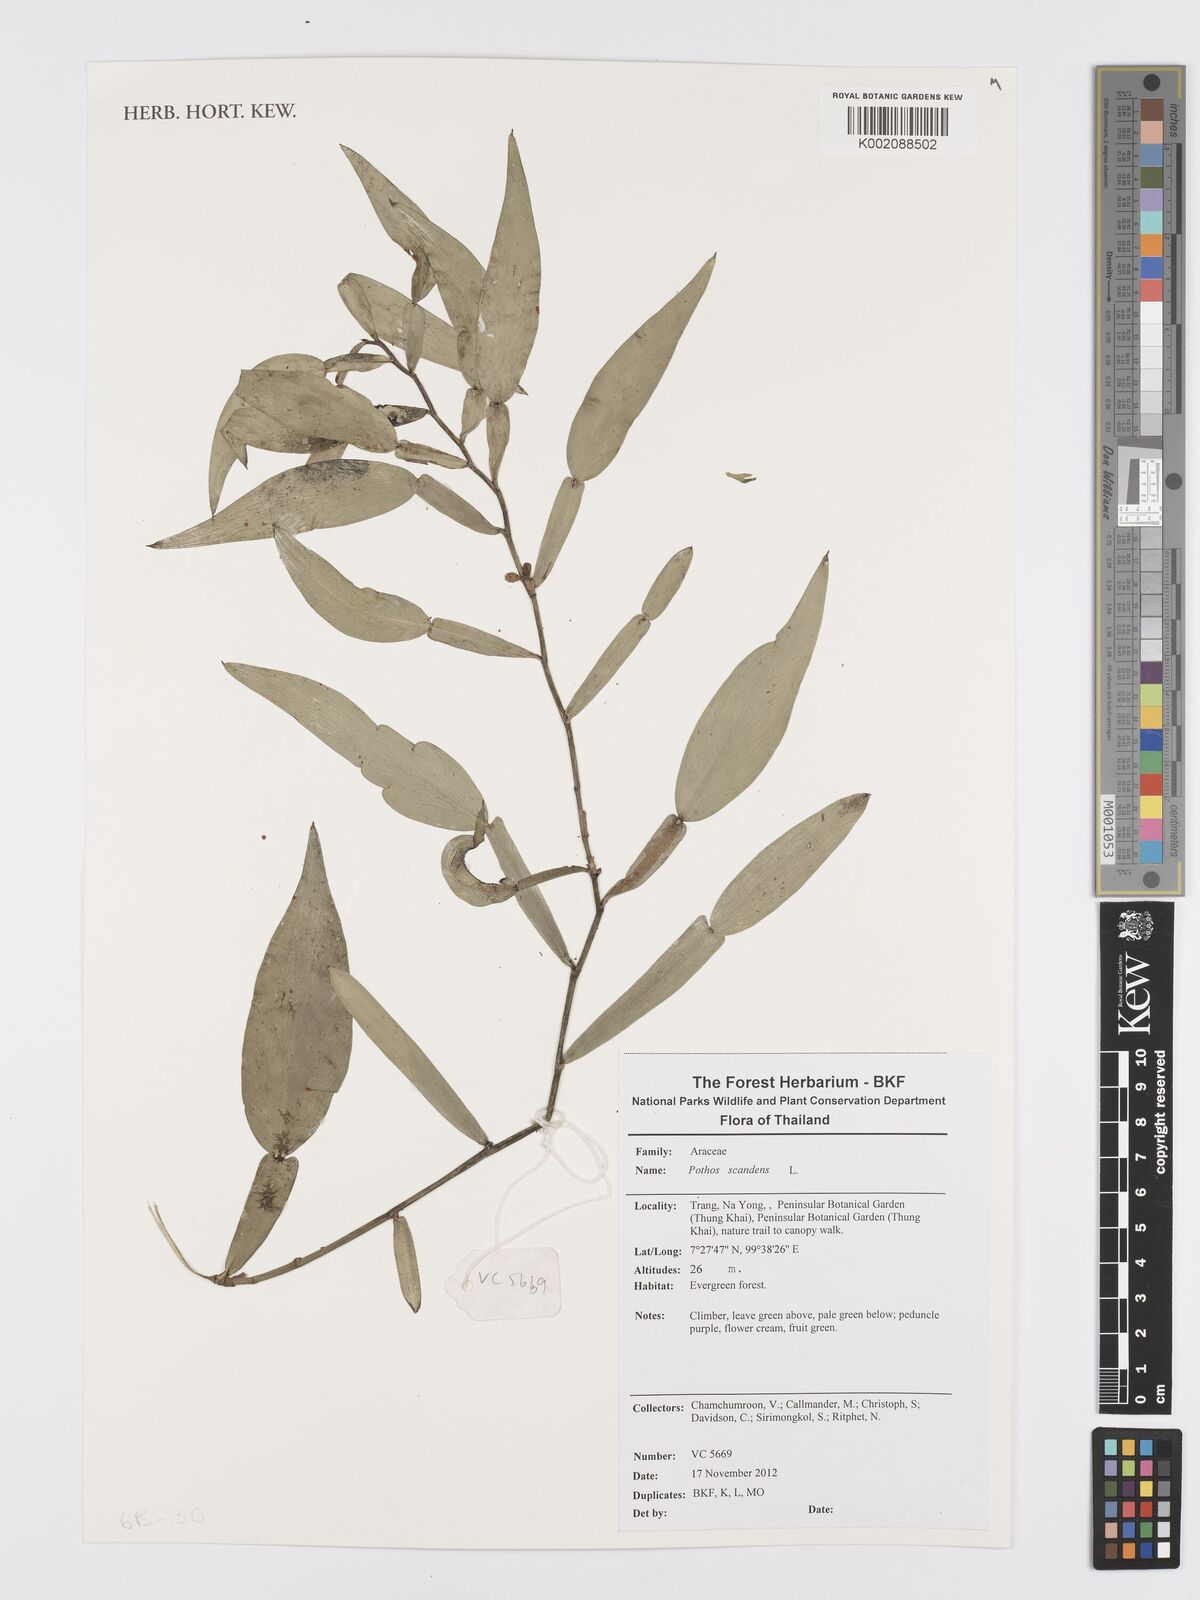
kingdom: Plantae
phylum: Tracheophyta
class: Liliopsida
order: Alismatales
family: Araceae
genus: Pothos
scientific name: Pothos scandens
